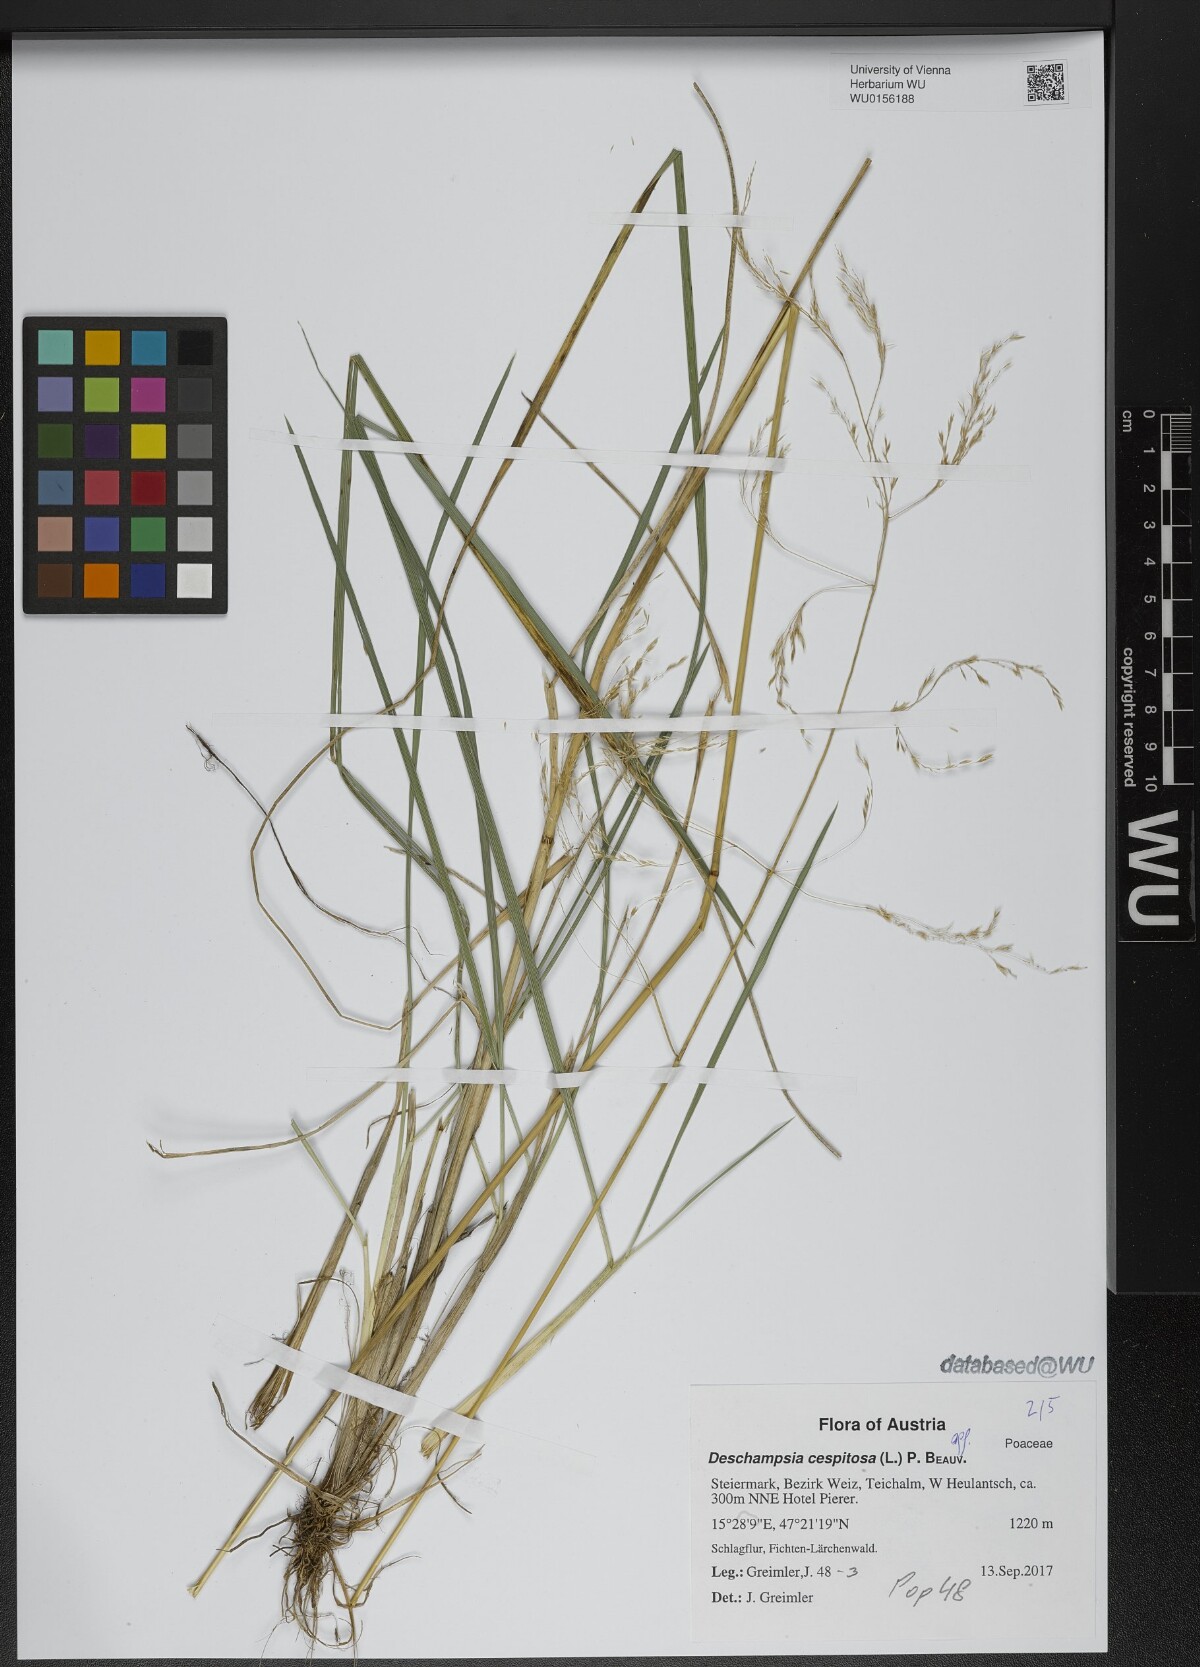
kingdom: Plantae
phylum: Tracheophyta
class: Liliopsida
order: Poales
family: Poaceae
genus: Deschampsia
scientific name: Deschampsia cespitosa
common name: Tufted hair-grass
